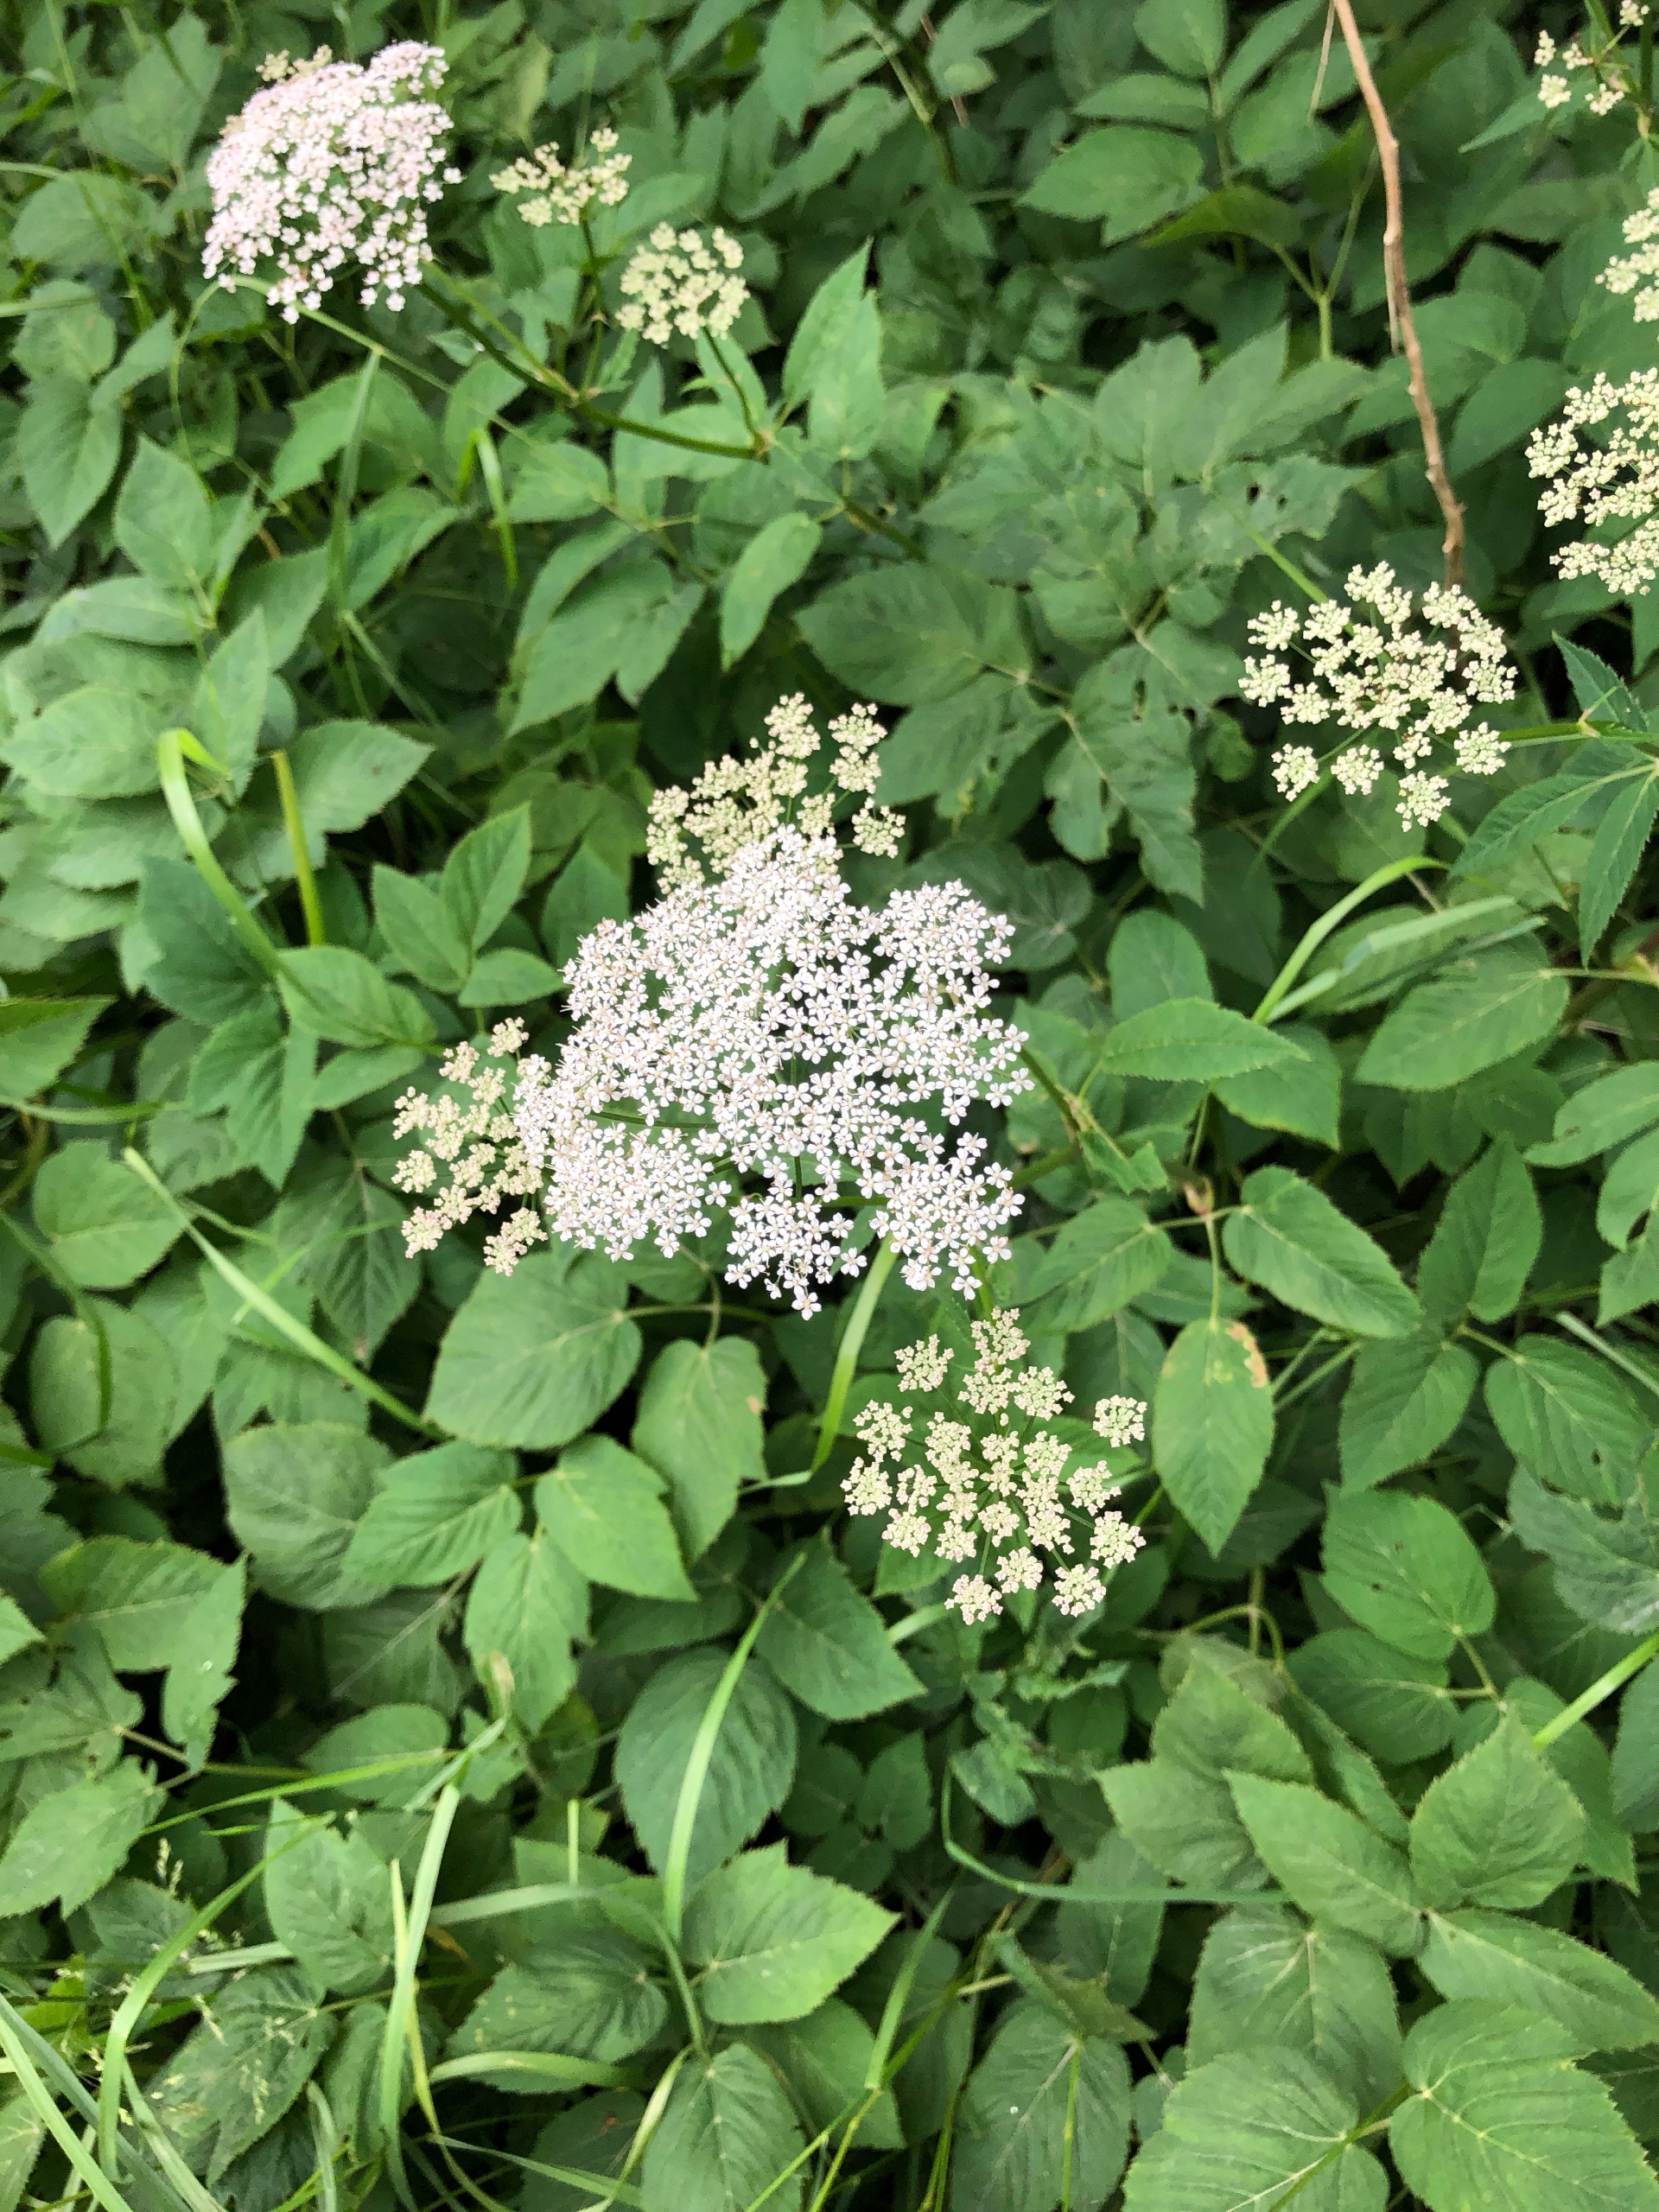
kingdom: Plantae
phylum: Tracheophyta
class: Magnoliopsida
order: Apiales
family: Apiaceae
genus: Aegopodium
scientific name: Aegopodium podagraria
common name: Skvalderkål
